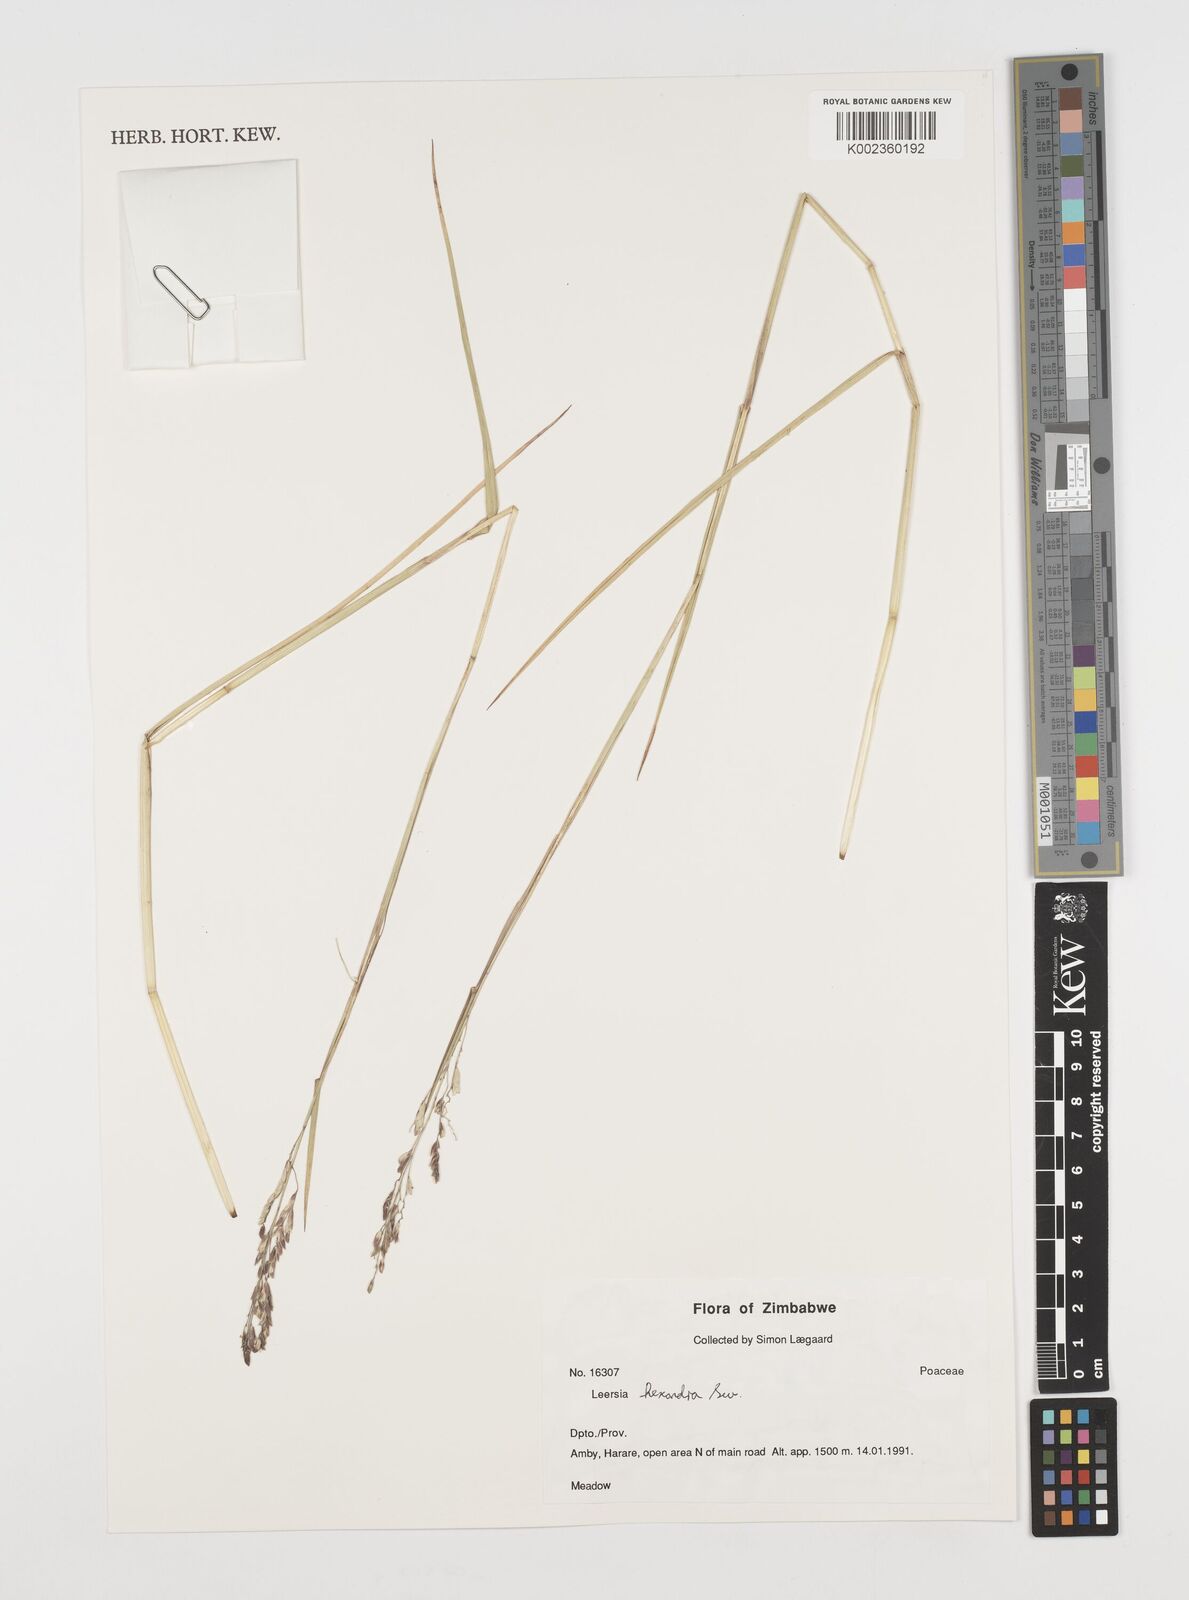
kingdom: Plantae
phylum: Tracheophyta
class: Liliopsida
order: Poales
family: Poaceae
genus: Leersia
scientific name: Leersia hexandra
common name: Southern cut grass
